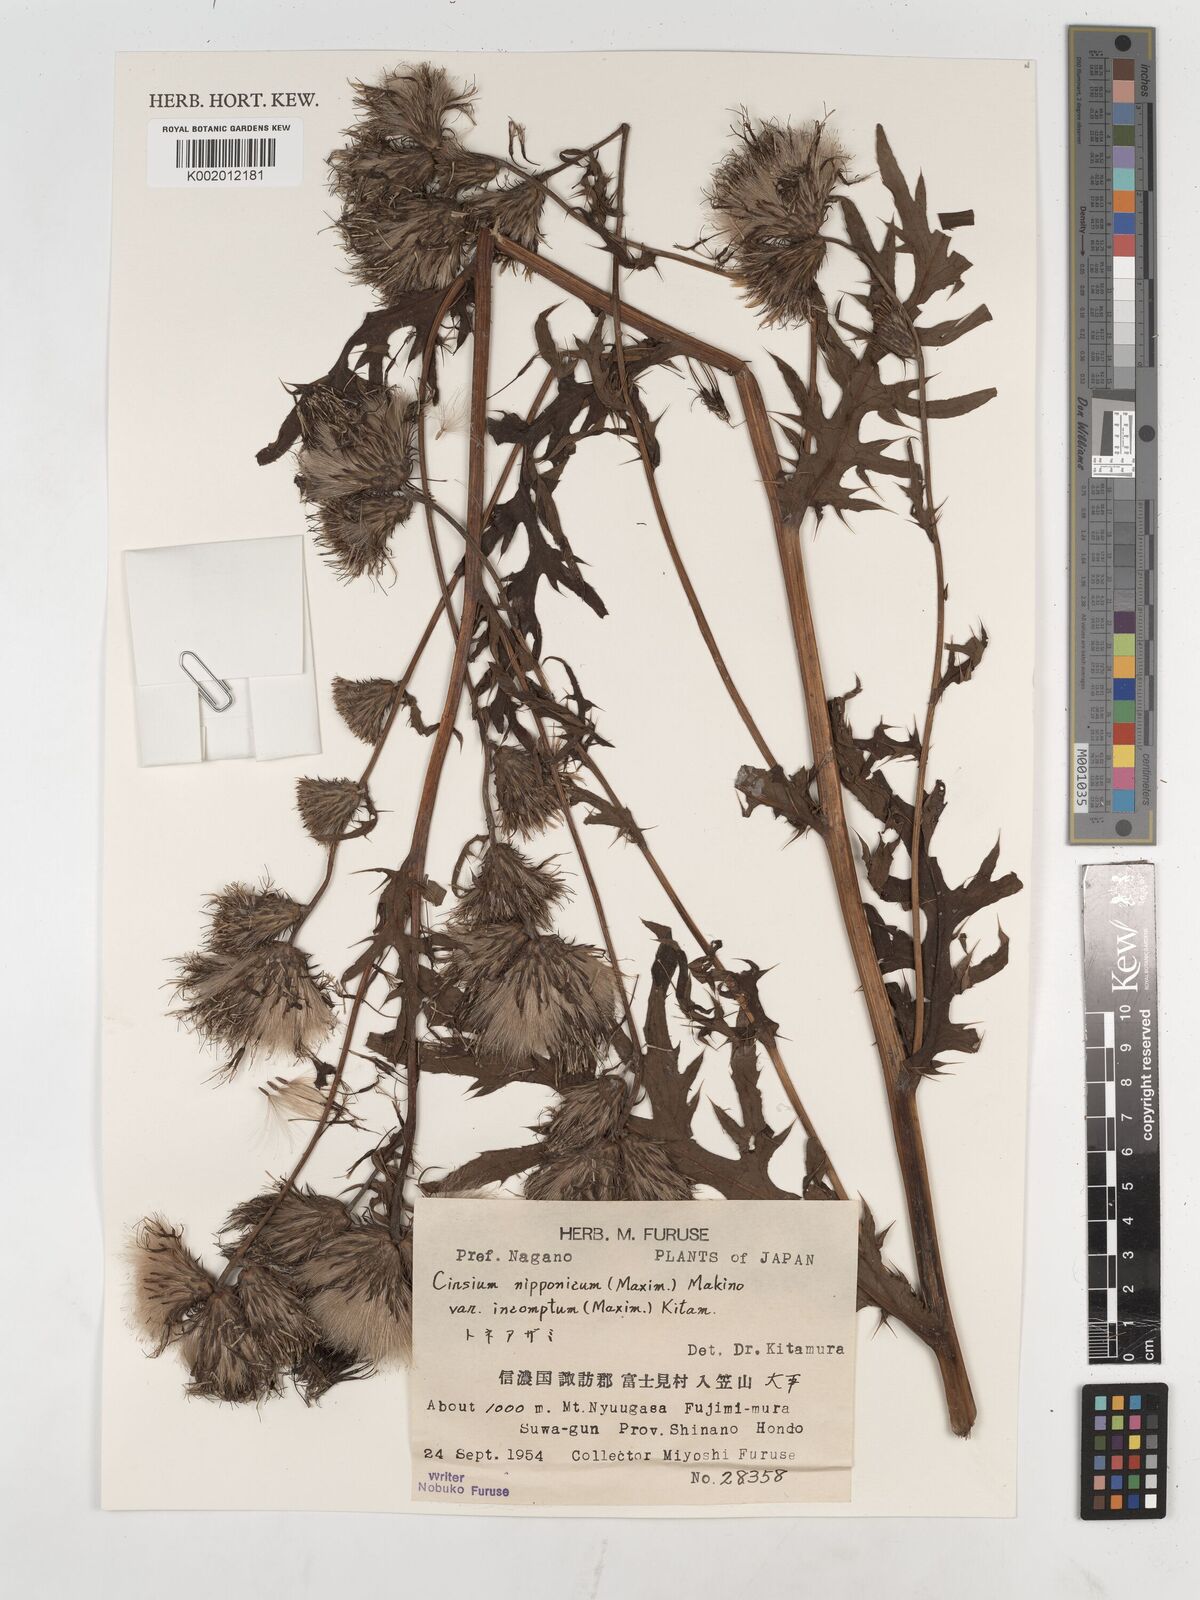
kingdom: Plantae
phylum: Tracheophyta
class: Magnoliopsida
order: Asterales
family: Asteraceae
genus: Cirsium
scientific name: Cirsium nipponicum
